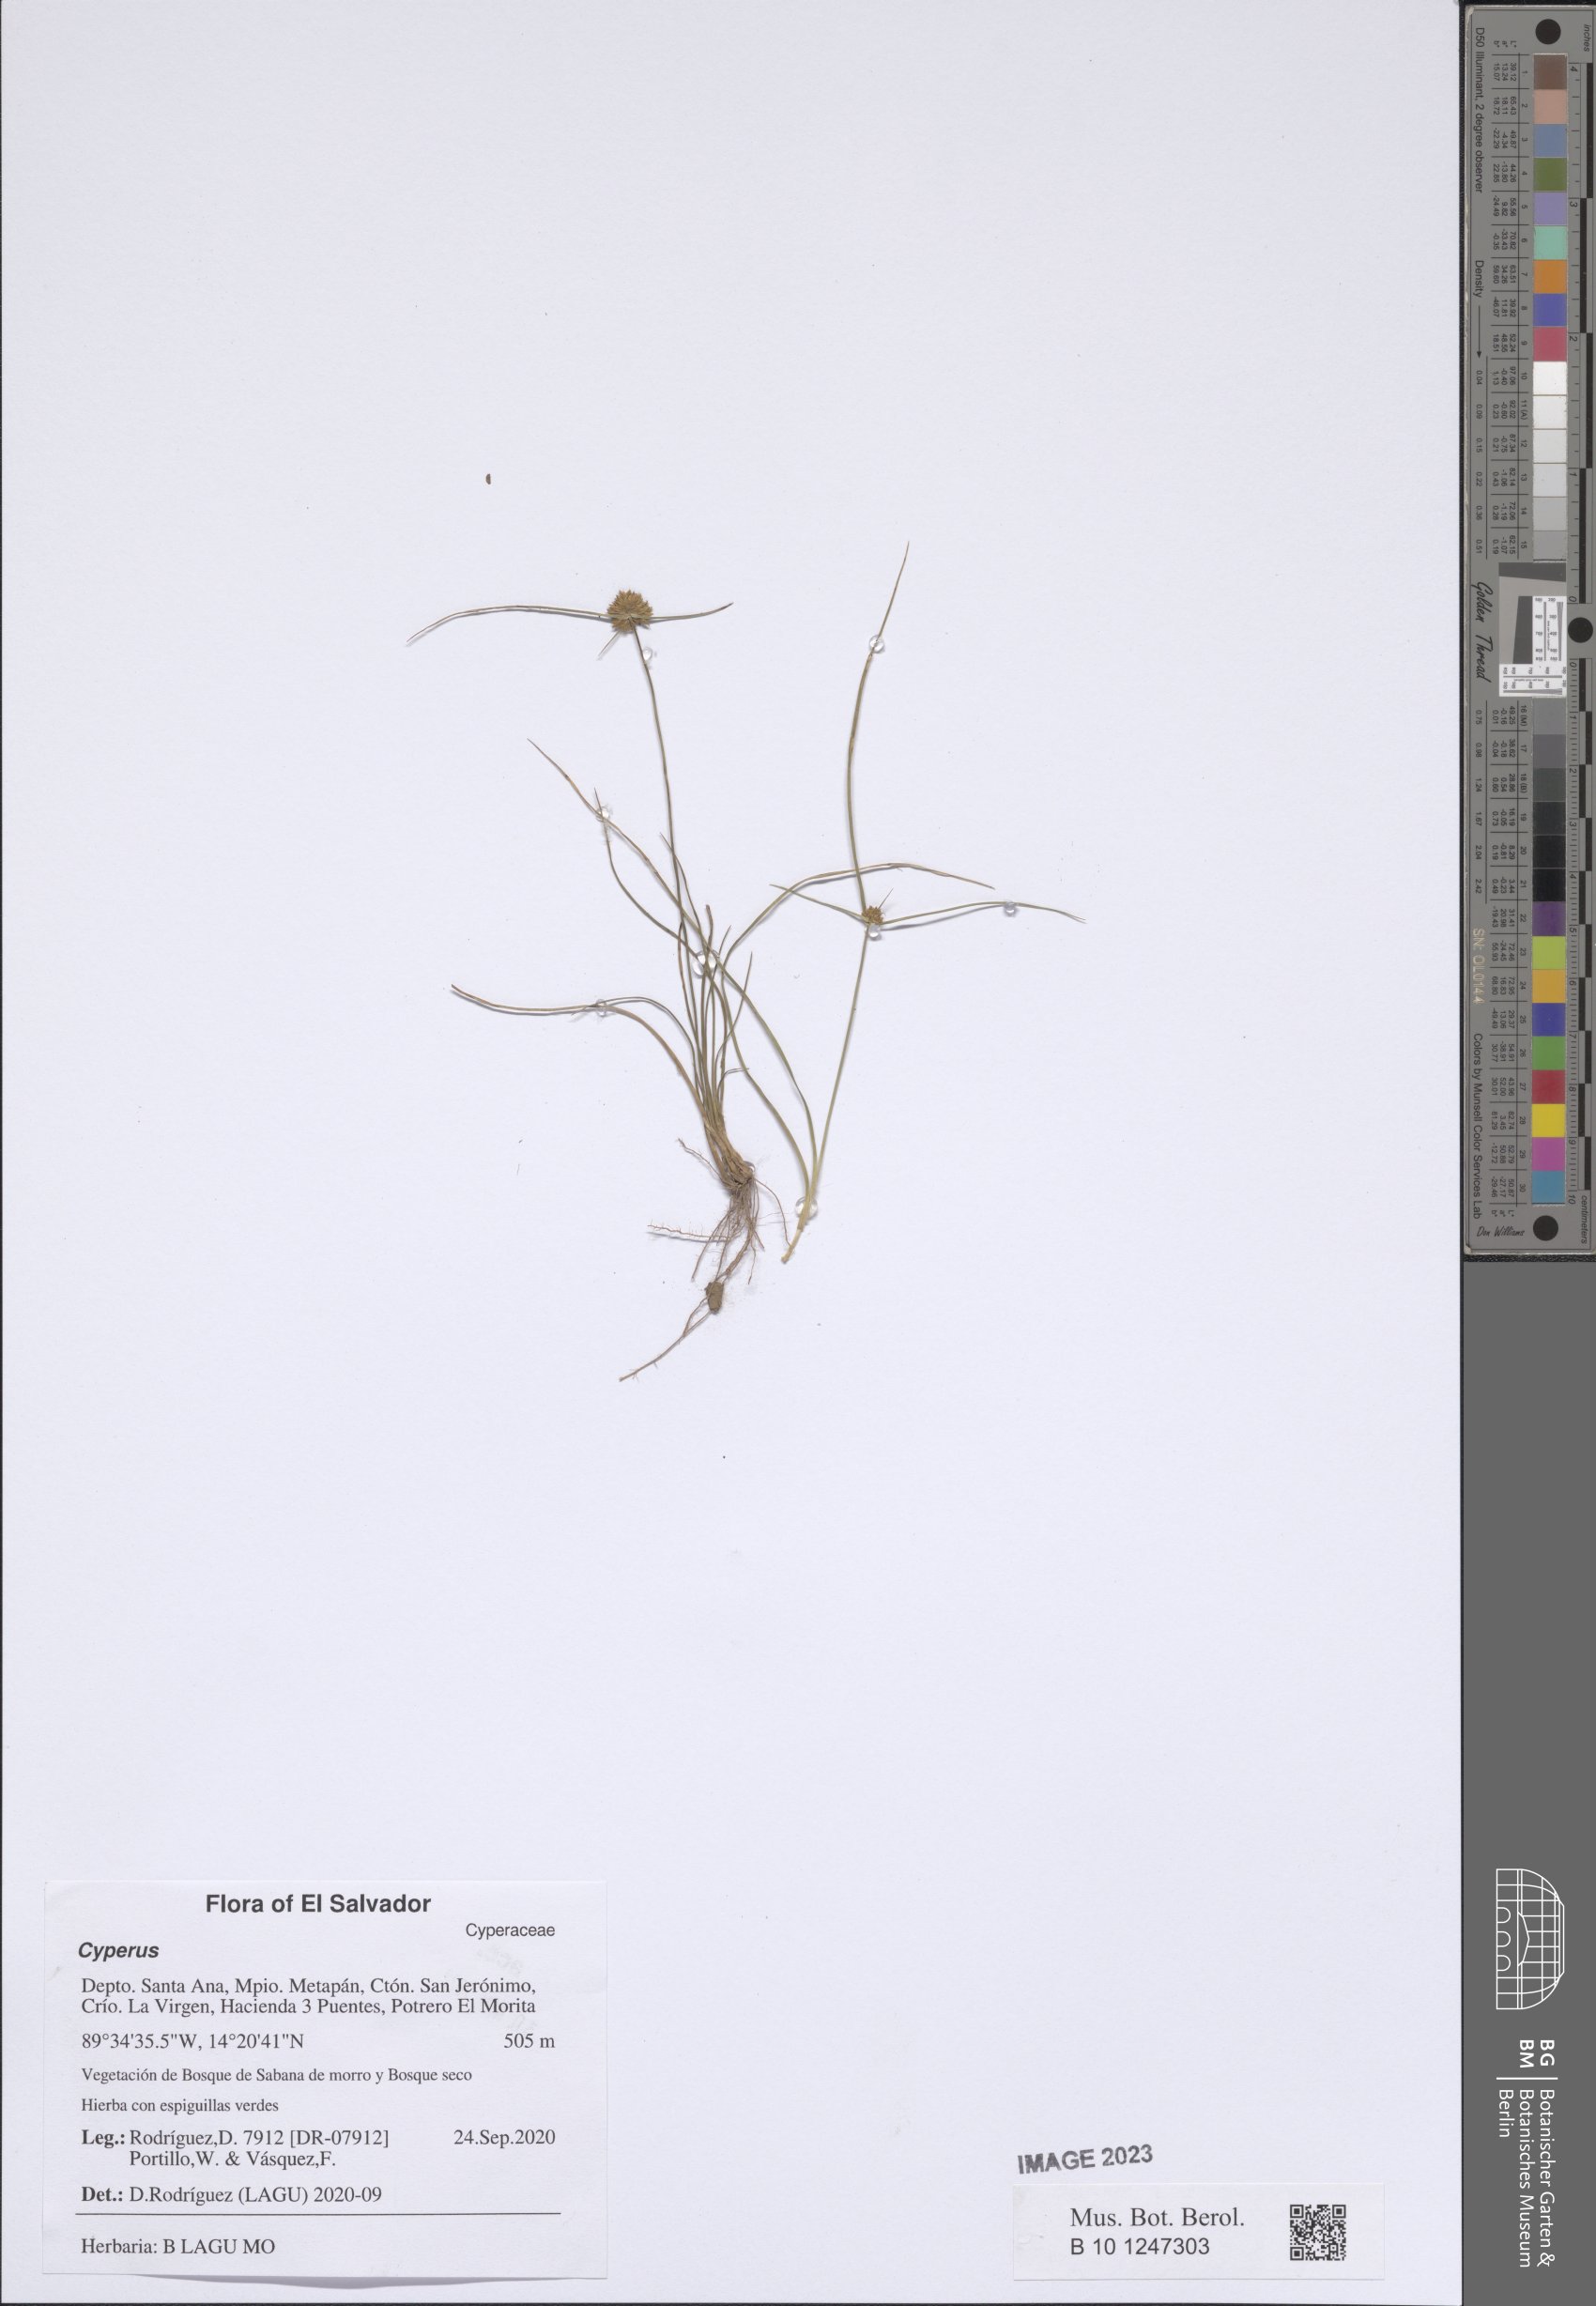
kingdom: Plantae
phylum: Tracheophyta
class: Liliopsida
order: Poales
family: Cyperaceae
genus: Cyperus
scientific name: Cyperus
